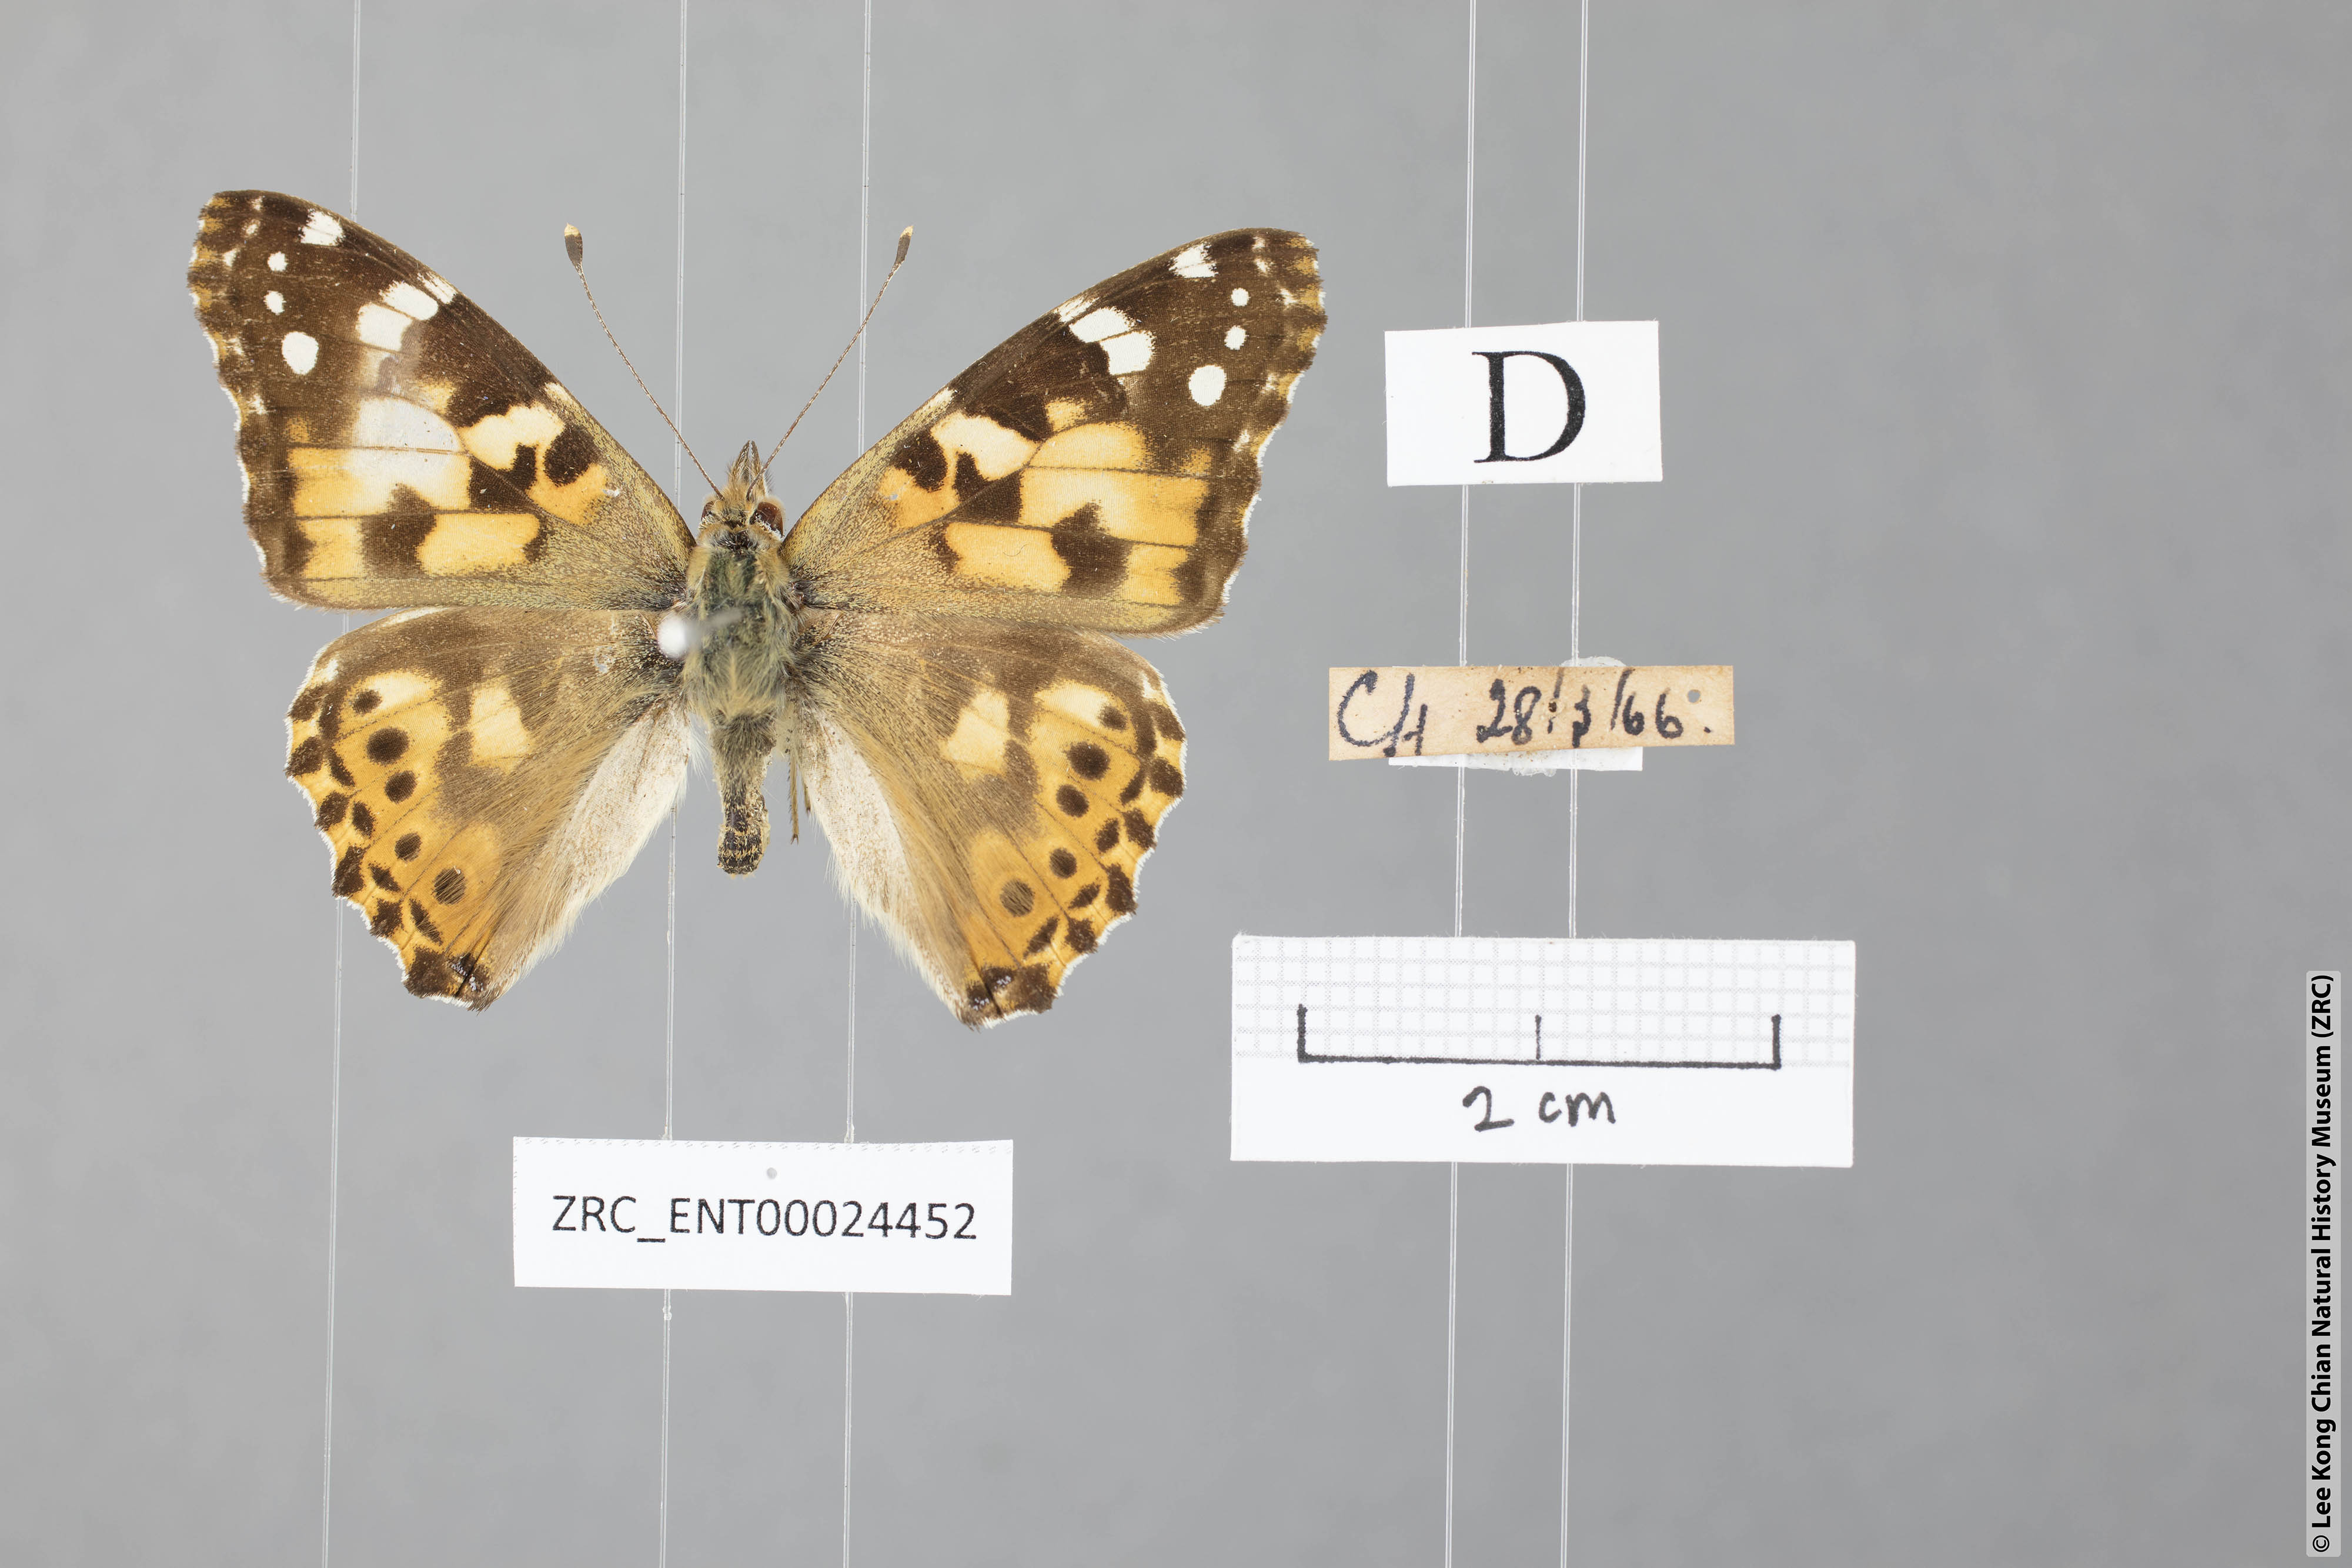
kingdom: Animalia
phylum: Arthropoda
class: Insecta
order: Lepidoptera
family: Nymphalidae
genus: Vanessa
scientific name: Vanessa cardui
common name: Painted lady
